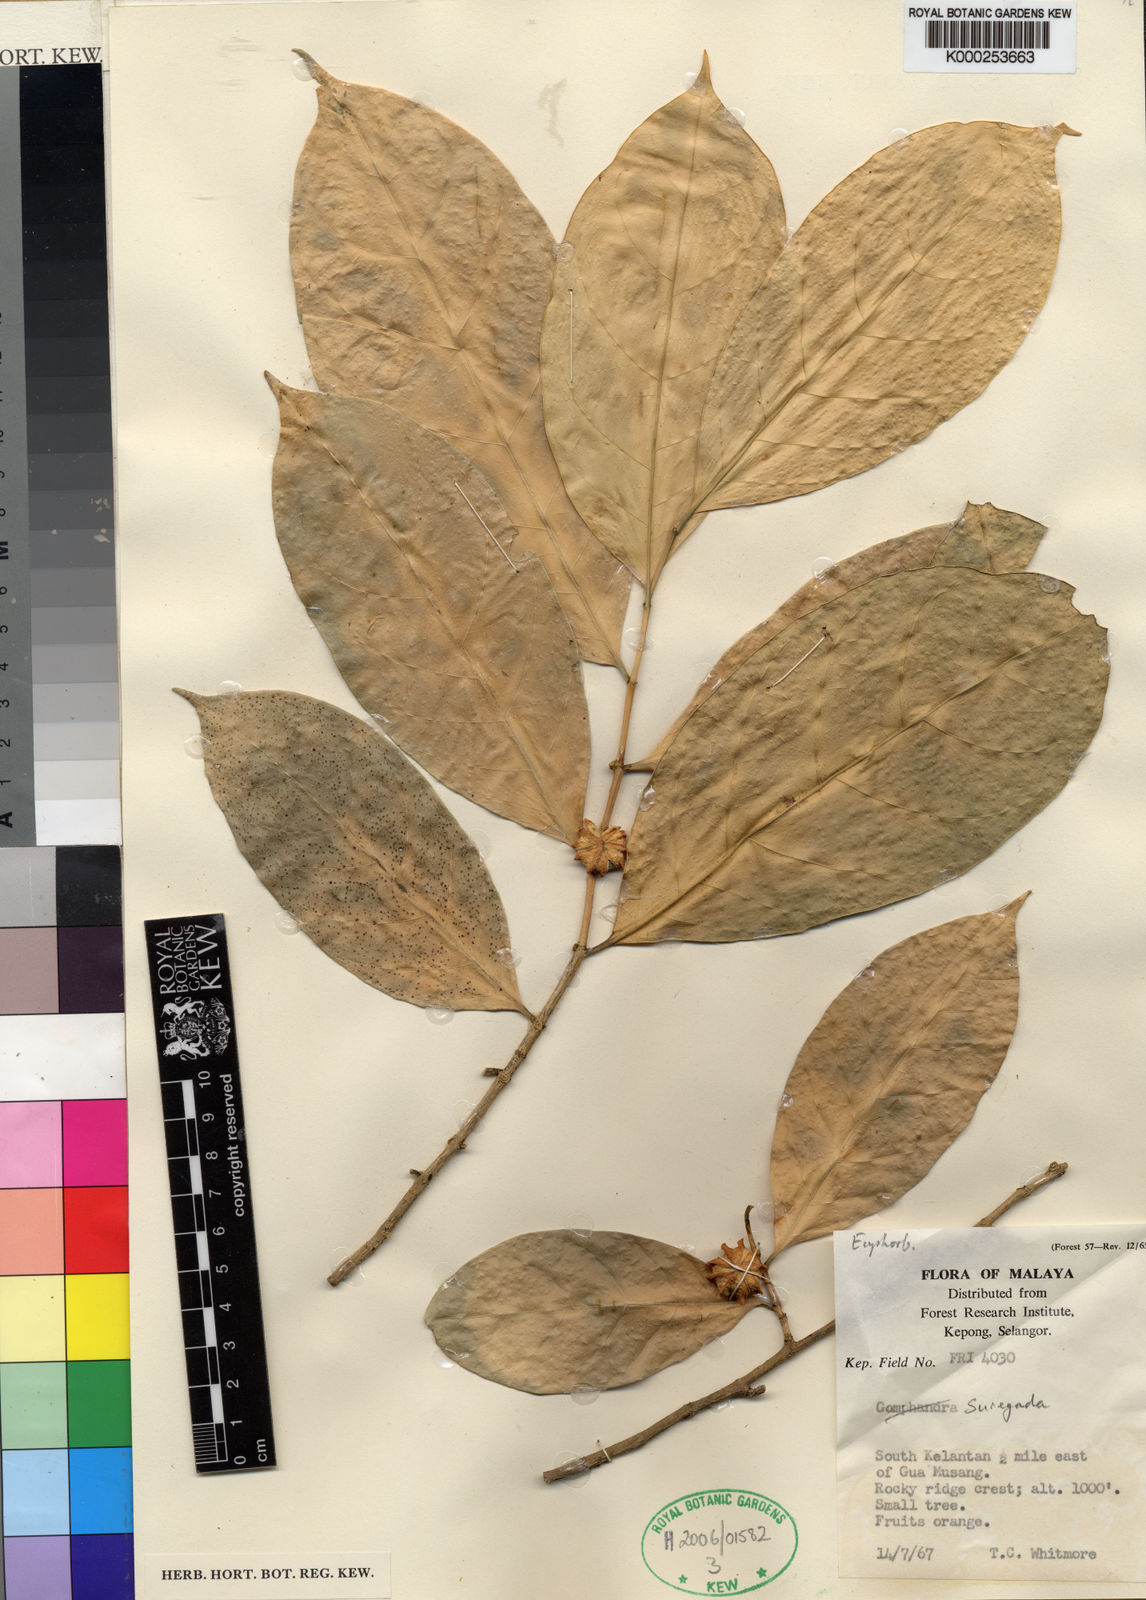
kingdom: Plantae
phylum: Tracheophyta
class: Magnoliopsida
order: Malpighiales
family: Euphorbiaceae
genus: Suregada
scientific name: Suregada multiflora
